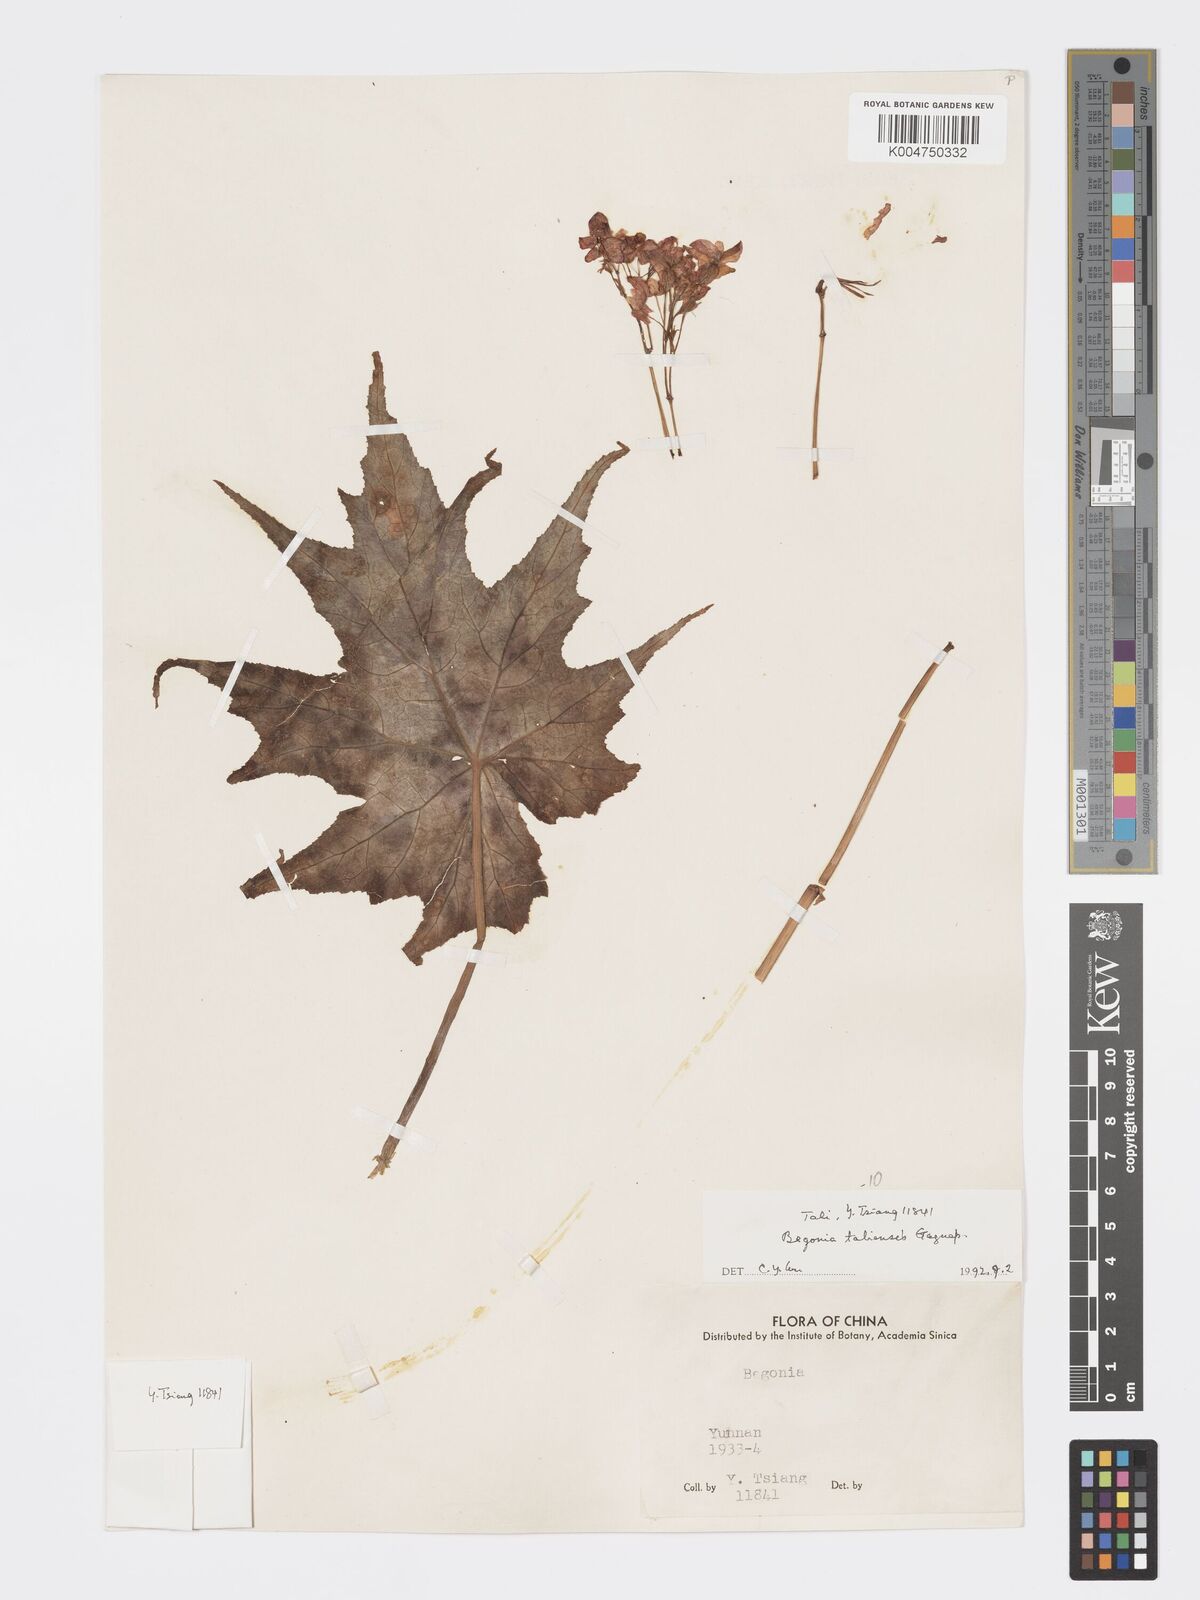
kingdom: Plantae
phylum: Tracheophyta
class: Magnoliopsida
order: Cucurbitales
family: Begoniaceae
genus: Begonia
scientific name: Begonia taliensis
